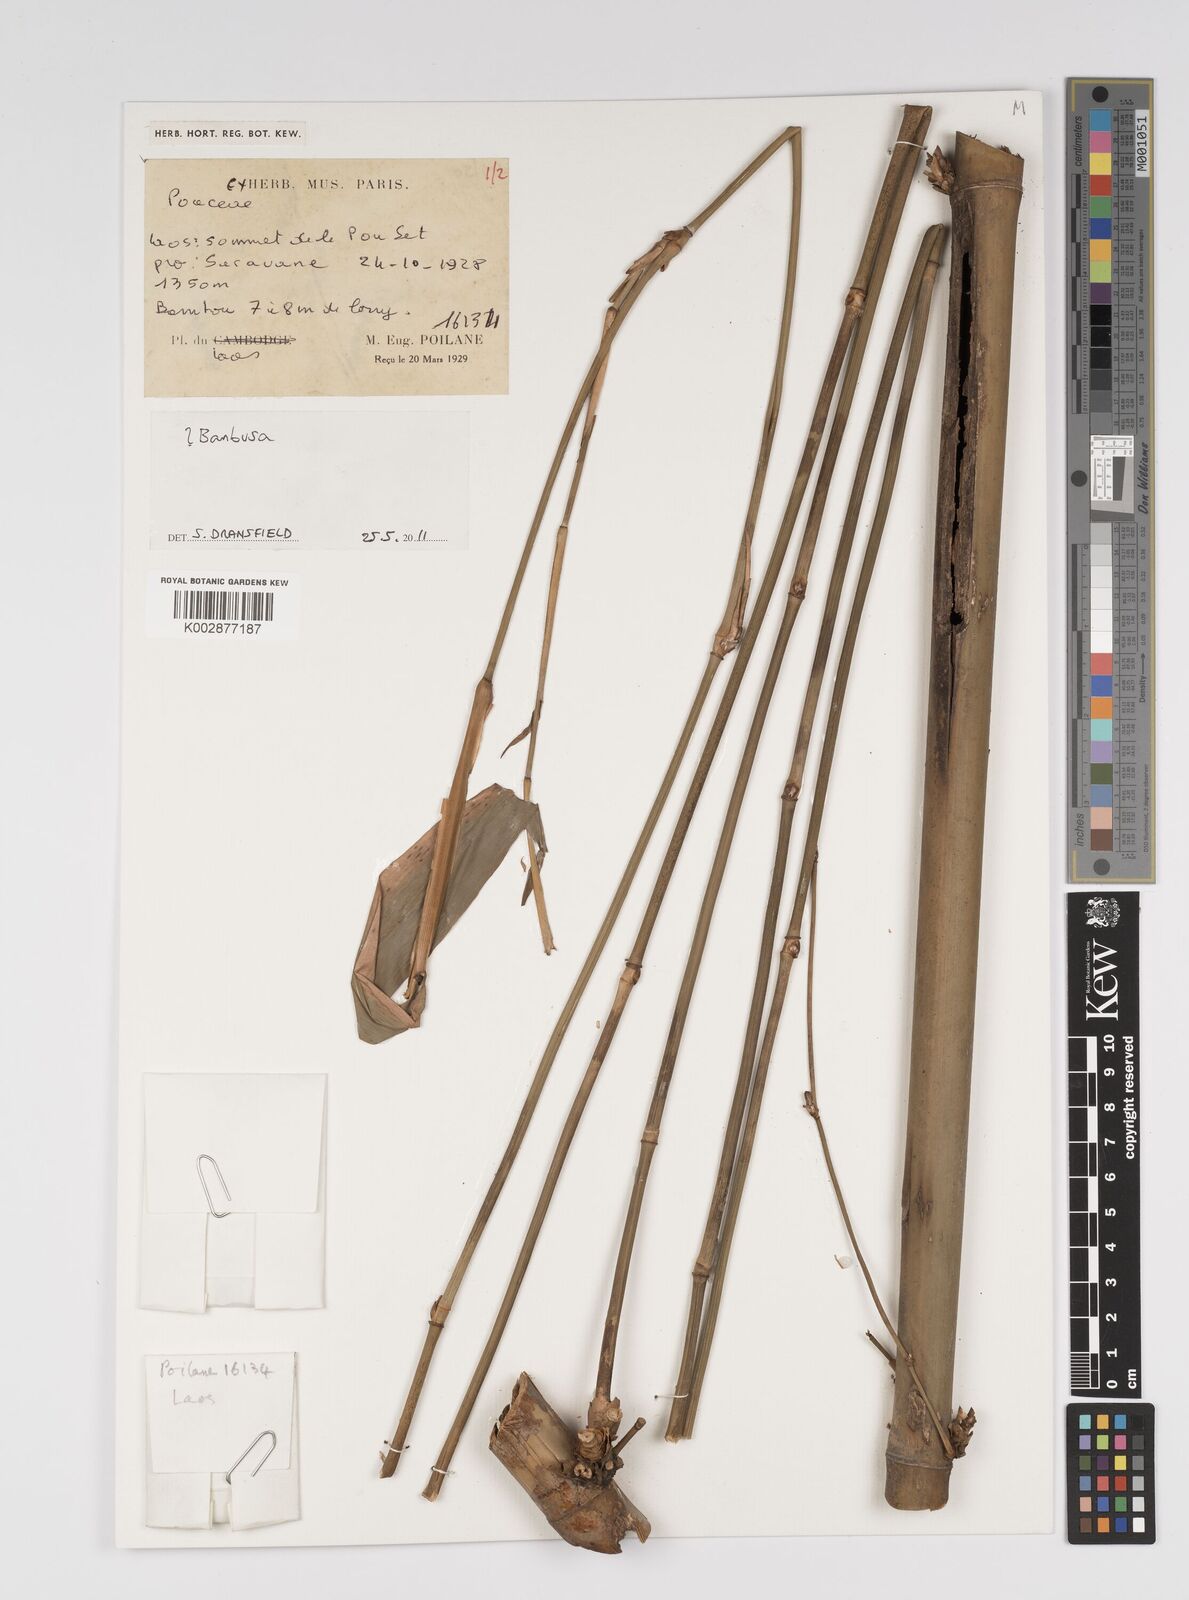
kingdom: Plantae
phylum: Tracheophyta
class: Liliopsida
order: Poales
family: Poaceae
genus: Bambusa
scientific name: Bambusa
